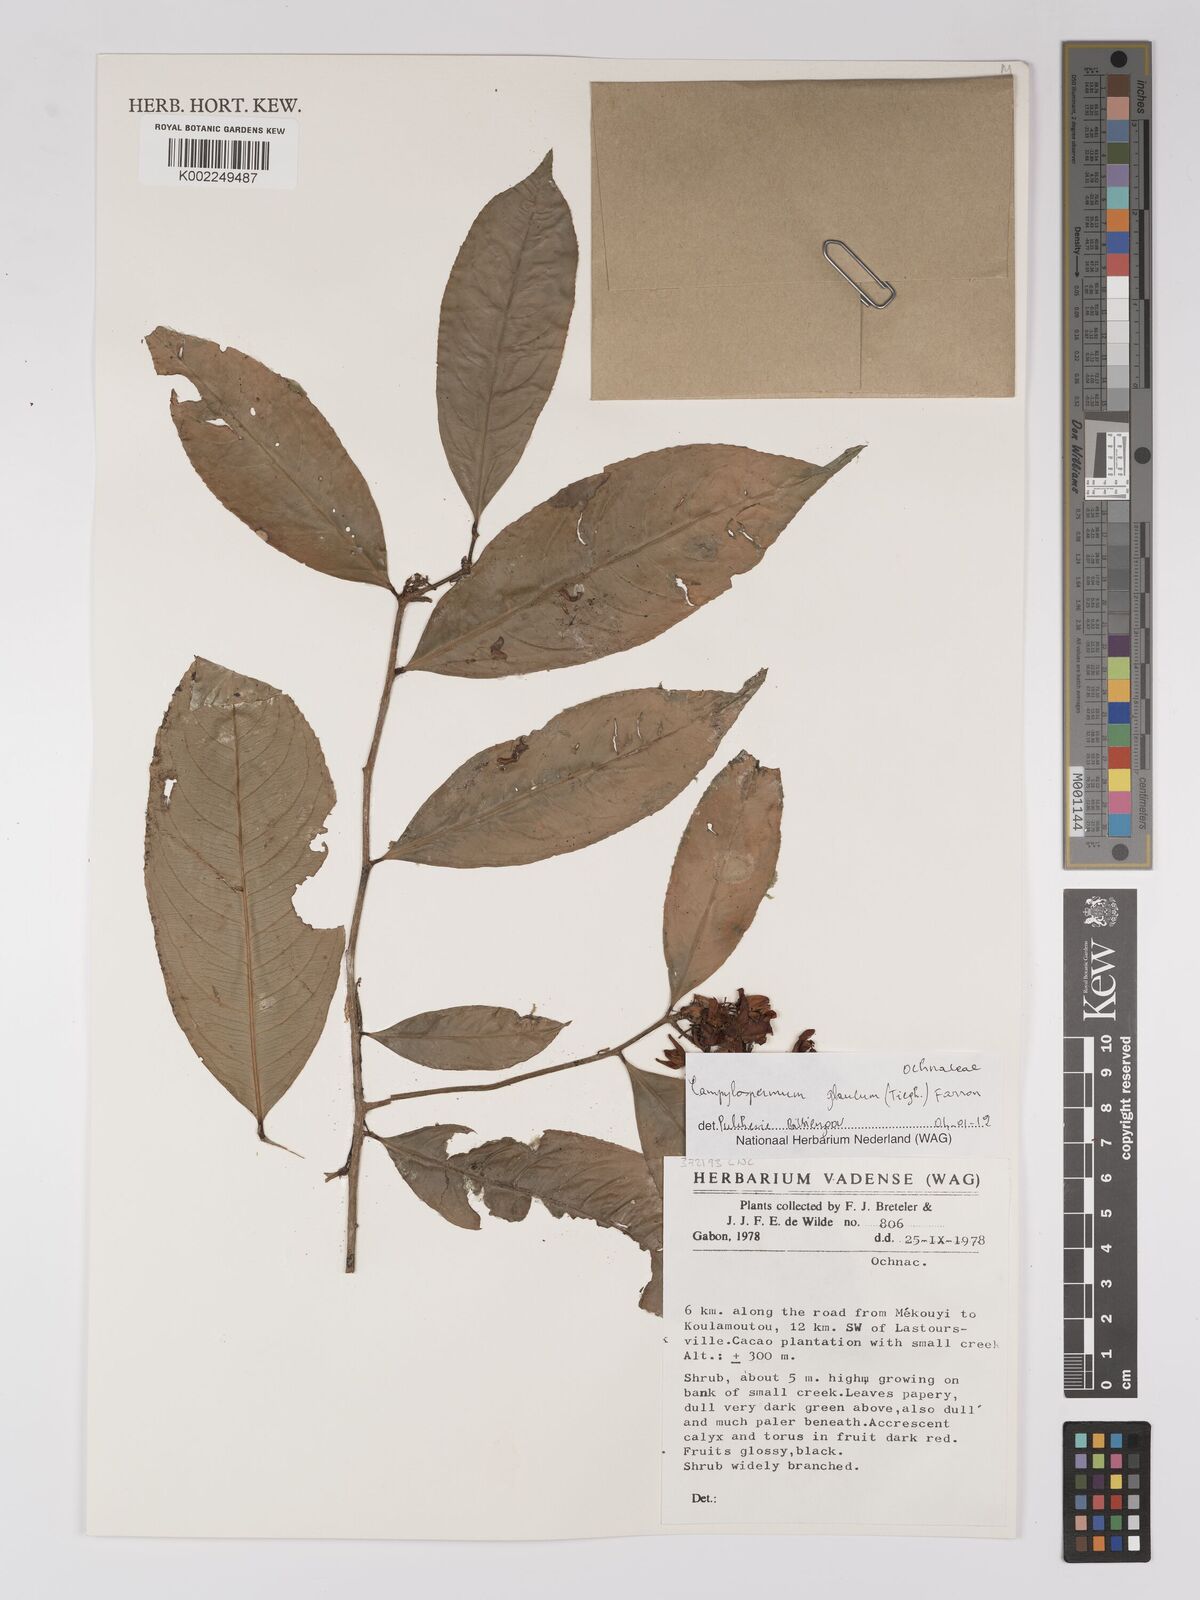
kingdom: Plantae
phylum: Tracheophyta
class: Magnoliopsida
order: Malpighiales
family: Ochnaceae
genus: Campylospermum
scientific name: Campylospermum glaucum
